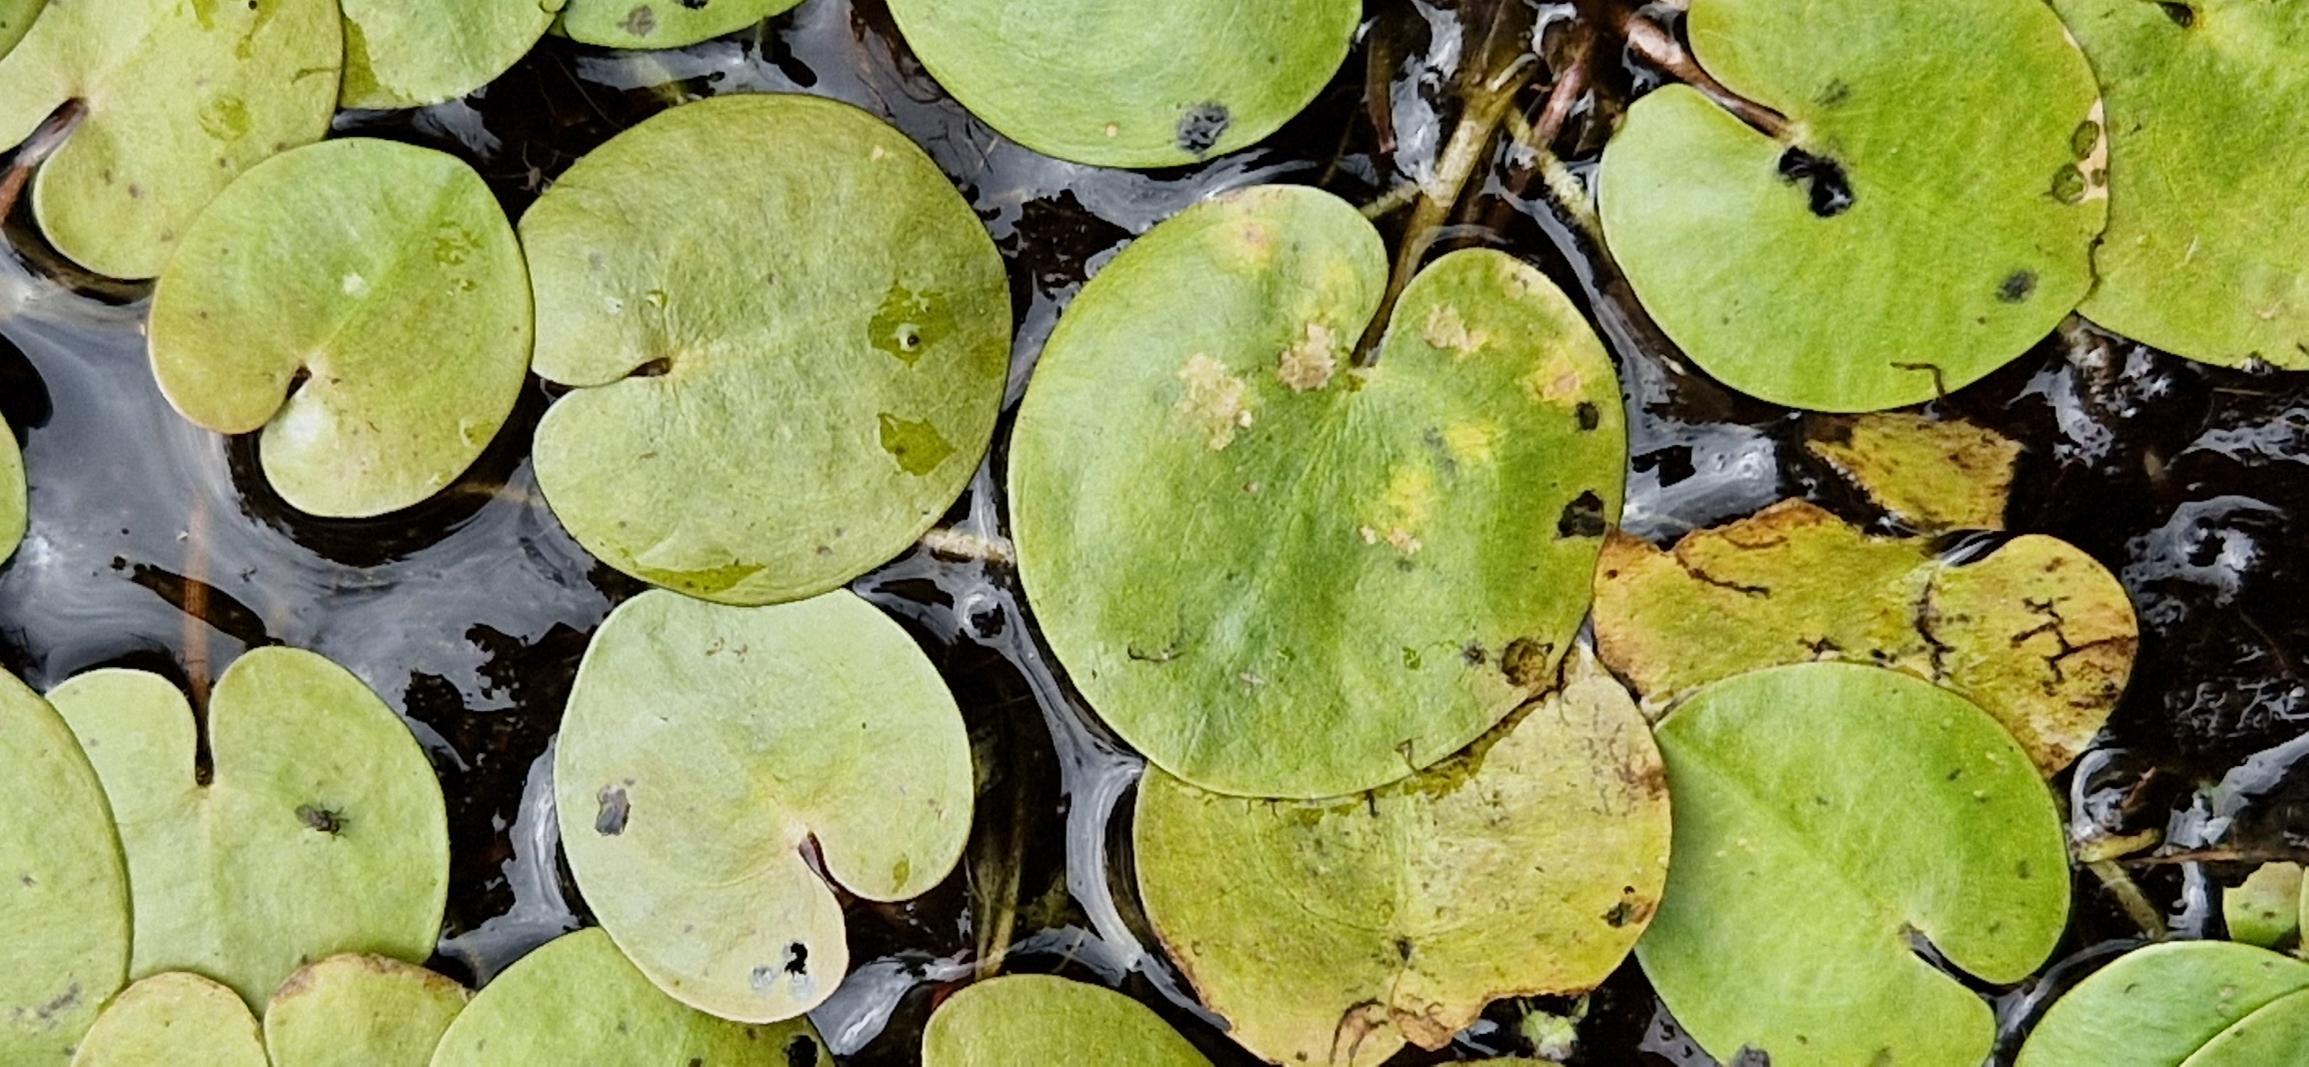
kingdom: Plantae
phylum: Tracheophyta
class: Liliopsida
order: Alismatales
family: Hydrocharitaceae
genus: Hydrocharis
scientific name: Hydrocharis morsus-ranae
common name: Frøbid
